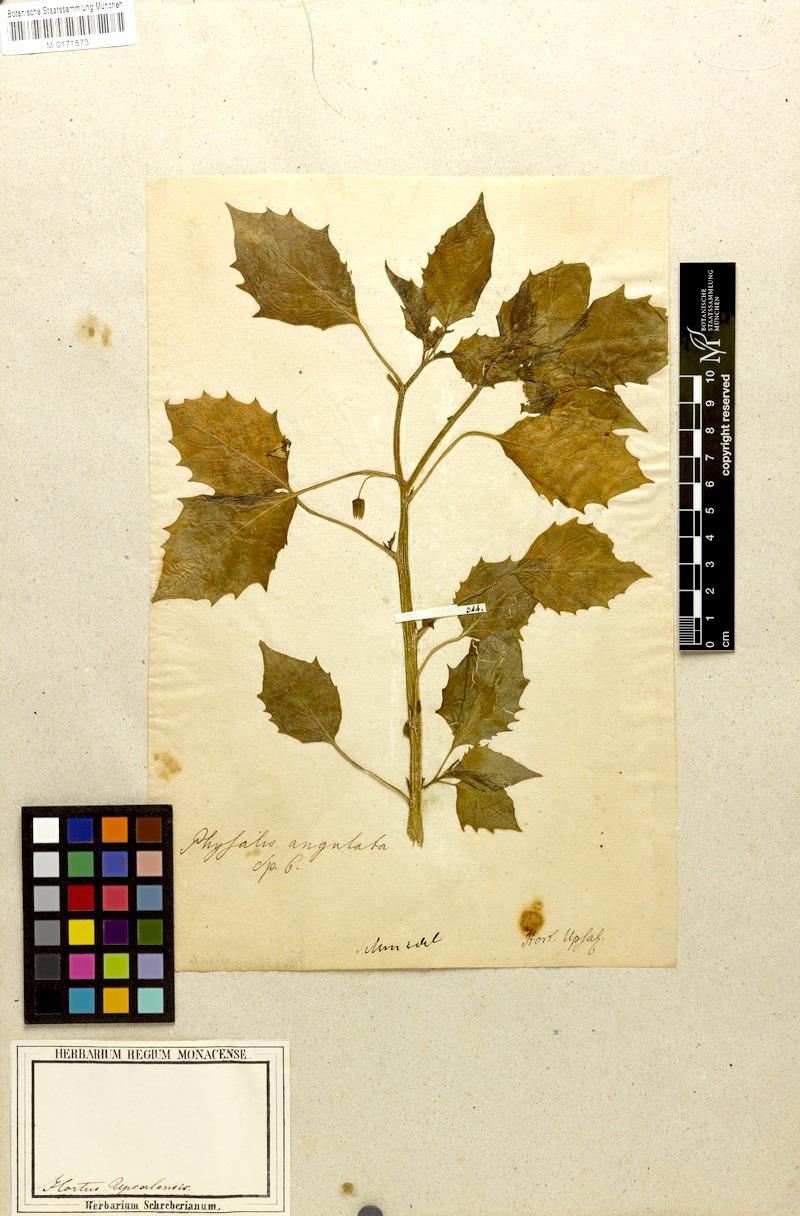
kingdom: Plantae
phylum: Tracheophyta
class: Magnoliopsida
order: Solanales
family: Solanaceae
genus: Physalis
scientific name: Physalis angulata
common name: Angular winter-cherry
